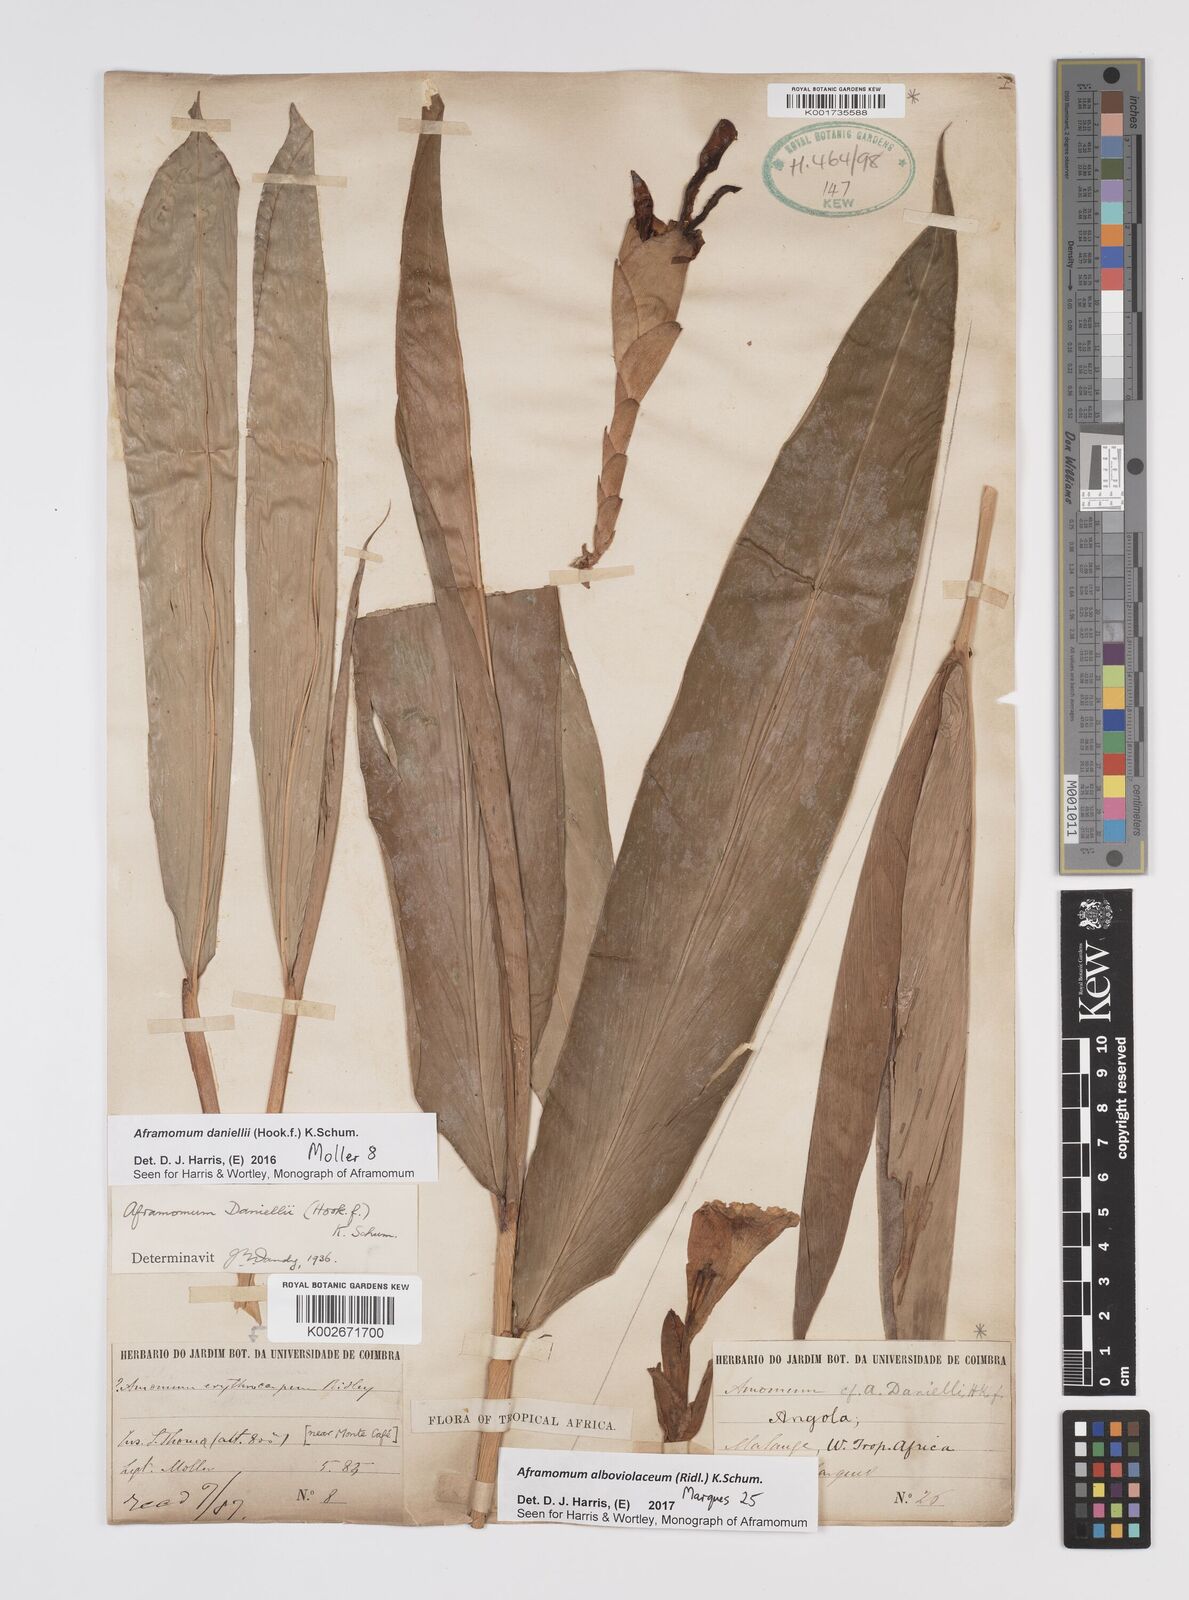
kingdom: Plantae
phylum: Tracheophyta
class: Liliopsida
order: Zingiberales
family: Zingiberaceae
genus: Aframomum
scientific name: Aframomum alboviolaceum
